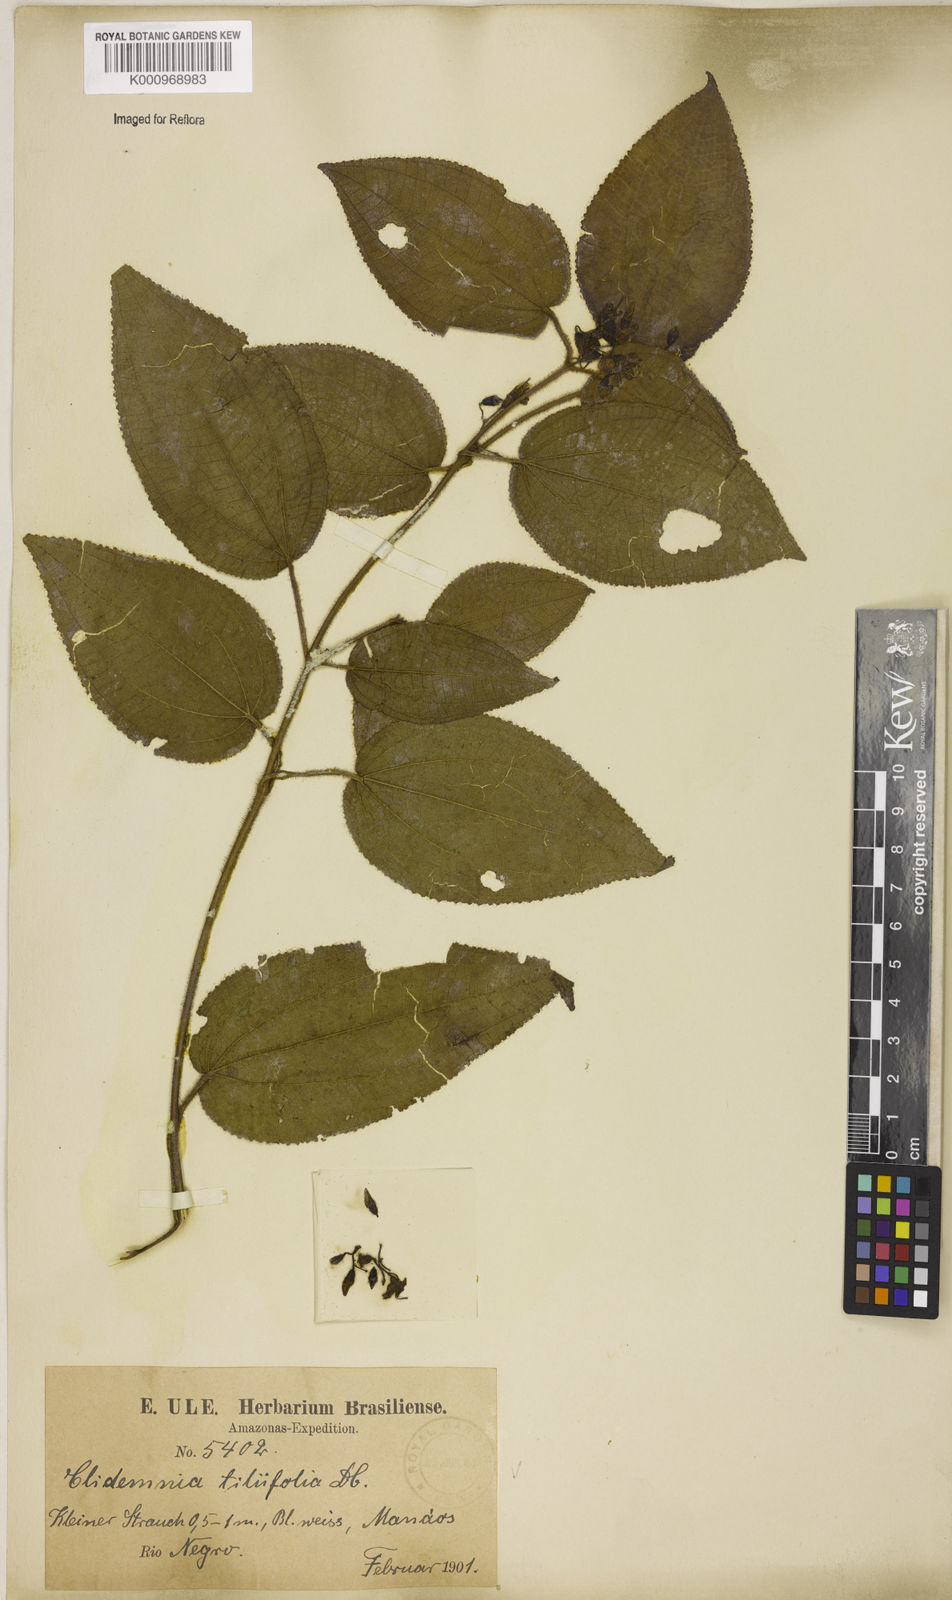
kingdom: Plantae
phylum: Tracheophyta
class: Magnoliopsida
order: Myrtales
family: Melastomataceae
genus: Miconia
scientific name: Miconia crenata
